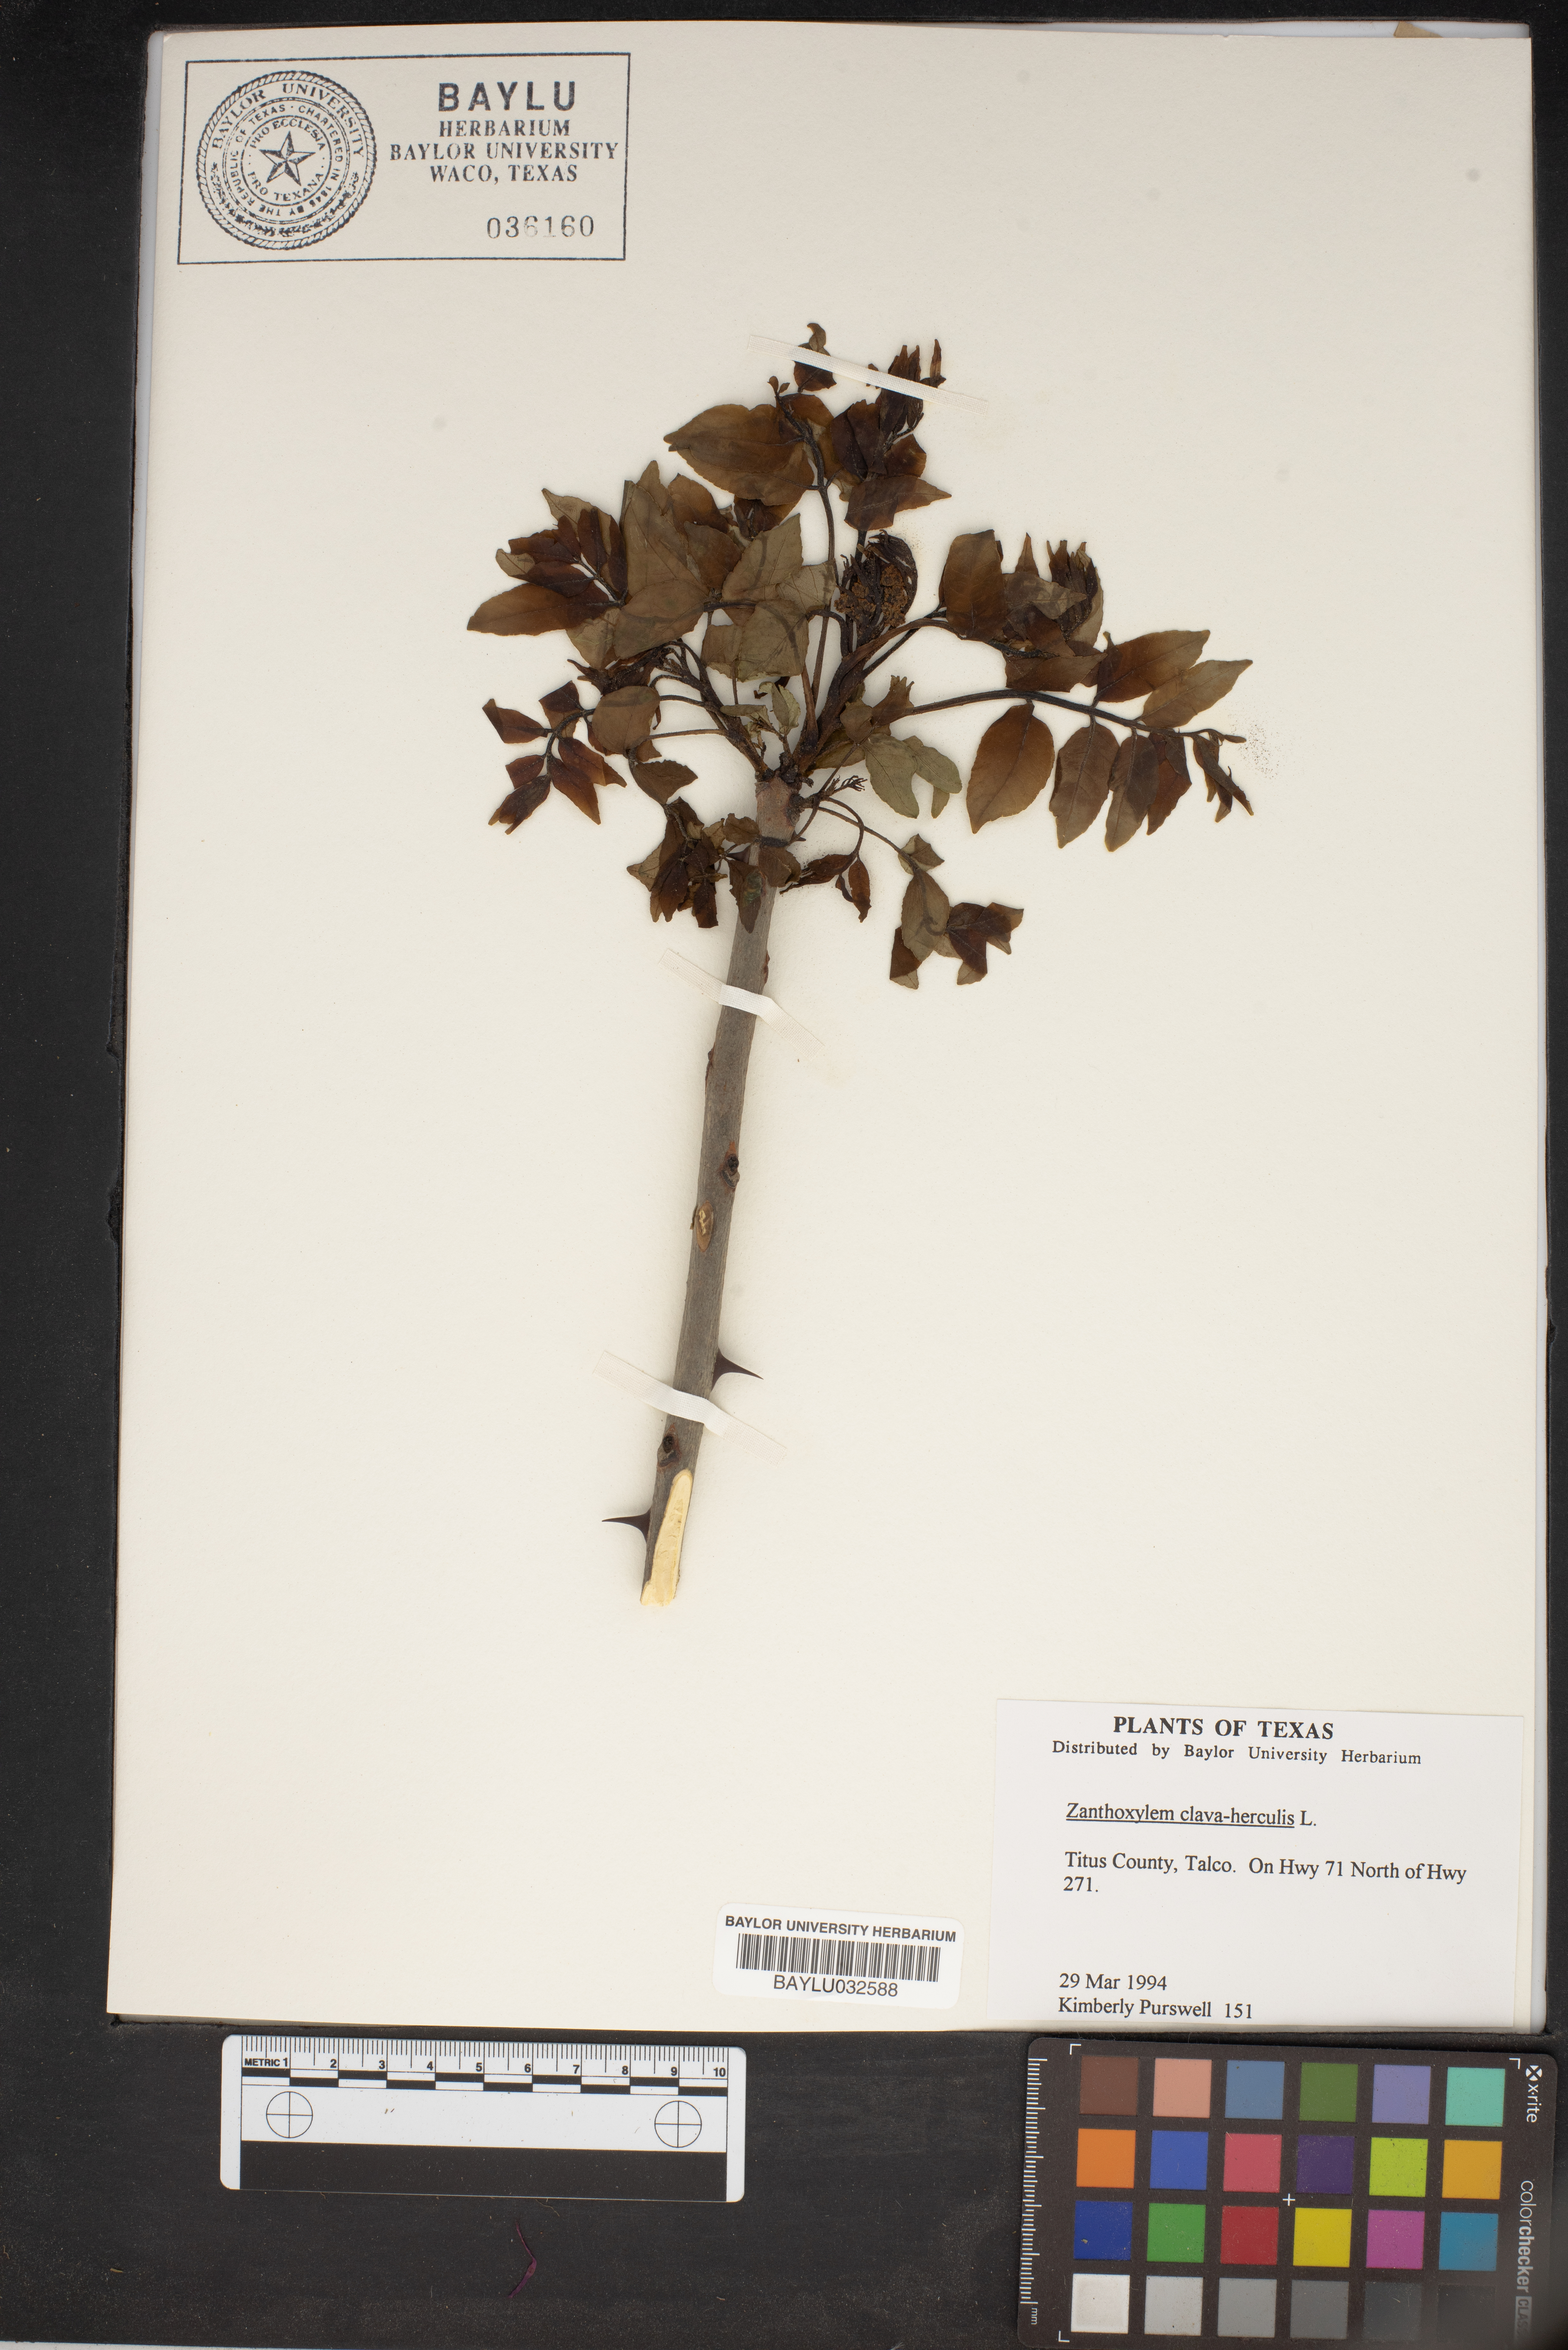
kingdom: Plantae
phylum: Tracheophyta
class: Magnoliopsida
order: Sapindales
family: Rutaceae
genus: Zanthoxylum
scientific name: Zanthoxylum avicennae
